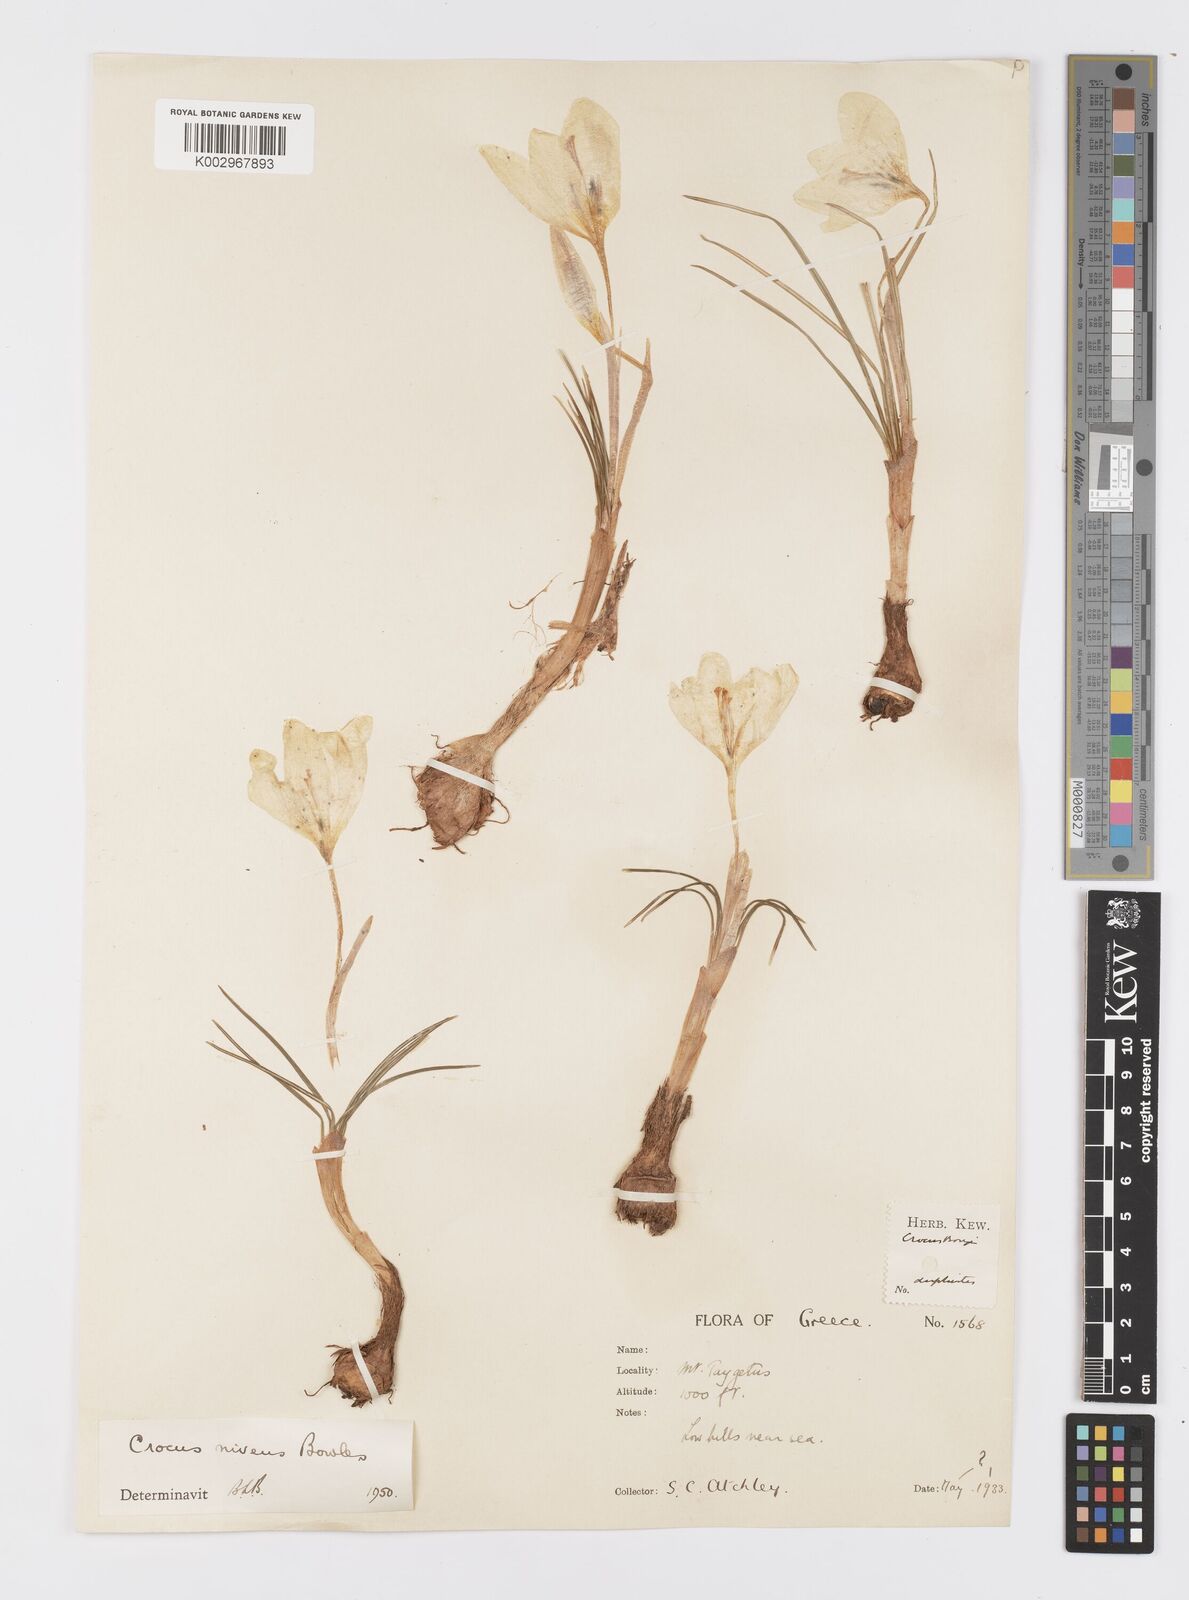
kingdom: Plantae
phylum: Tracheophyta
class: Liliopsida
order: Asparagales
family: Iridaceae
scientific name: Iridaceae
